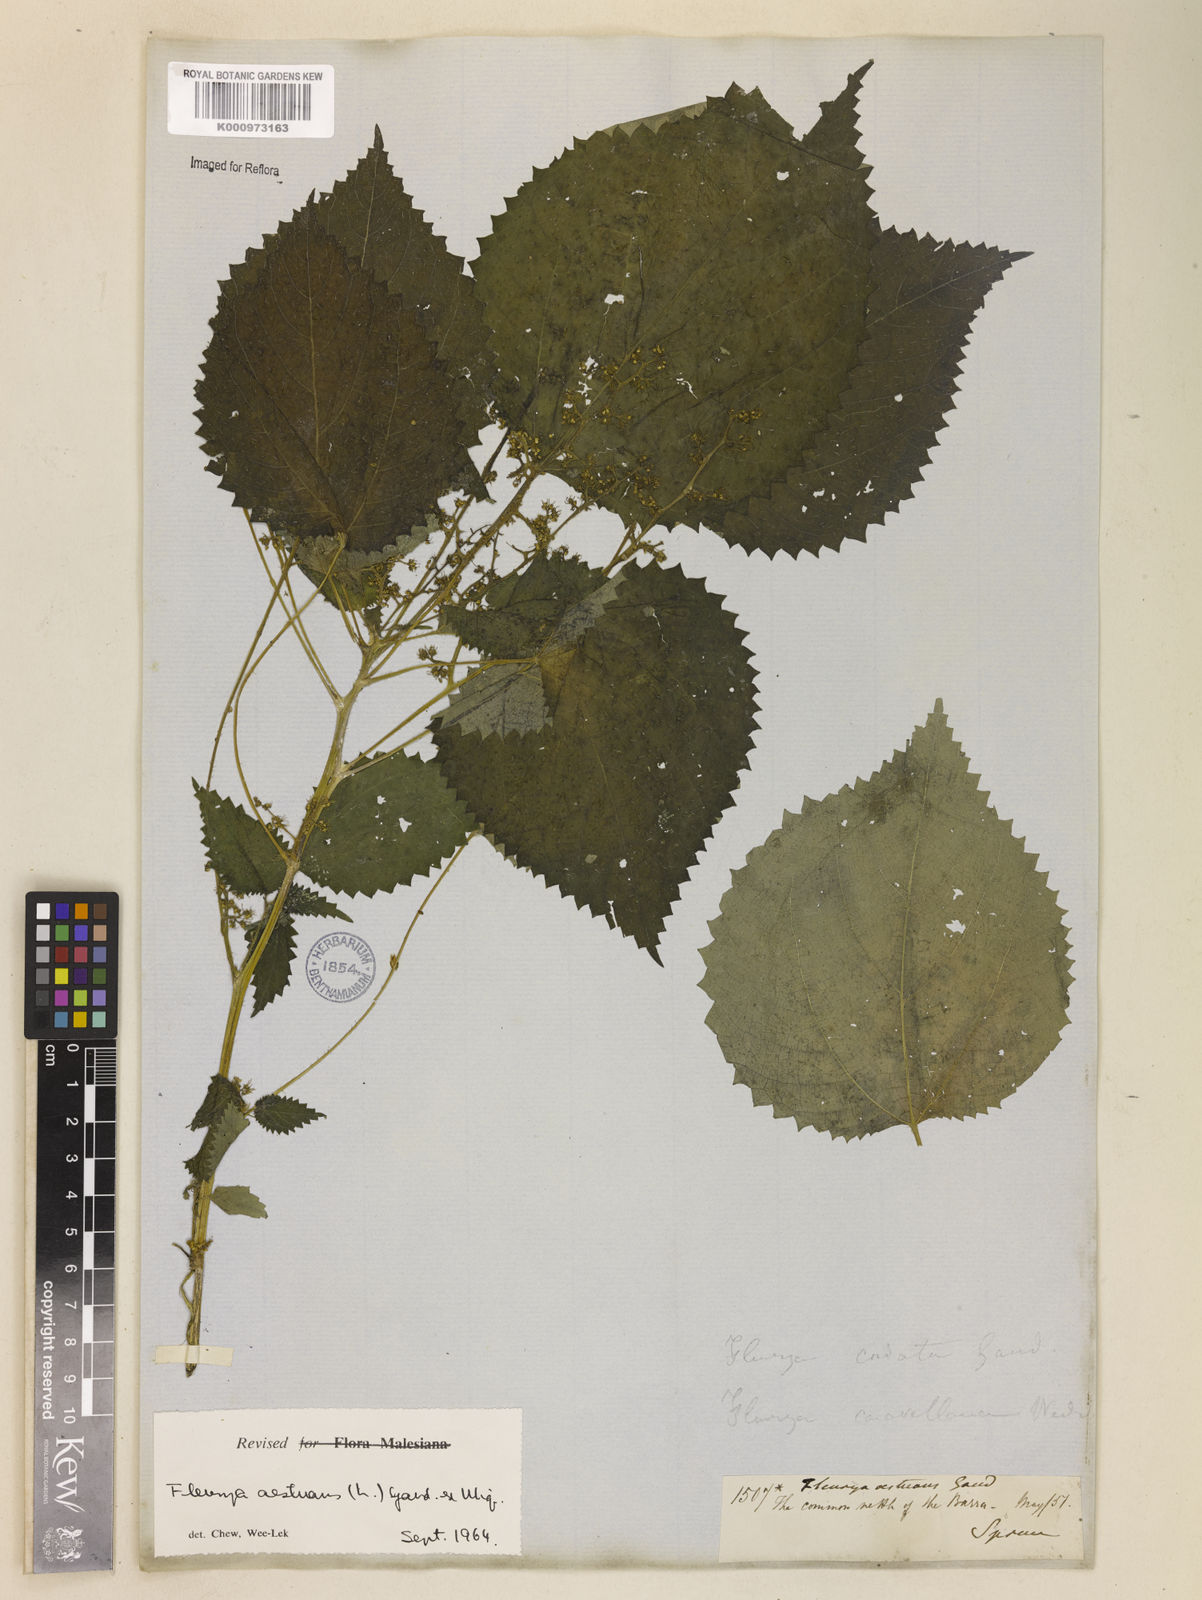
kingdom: Plantae
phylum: Tracheophyta
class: Magnoliopsida
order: Rosales
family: Urticaceae
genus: Laportea
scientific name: Laportea aestuans
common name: West indian woodnettle
